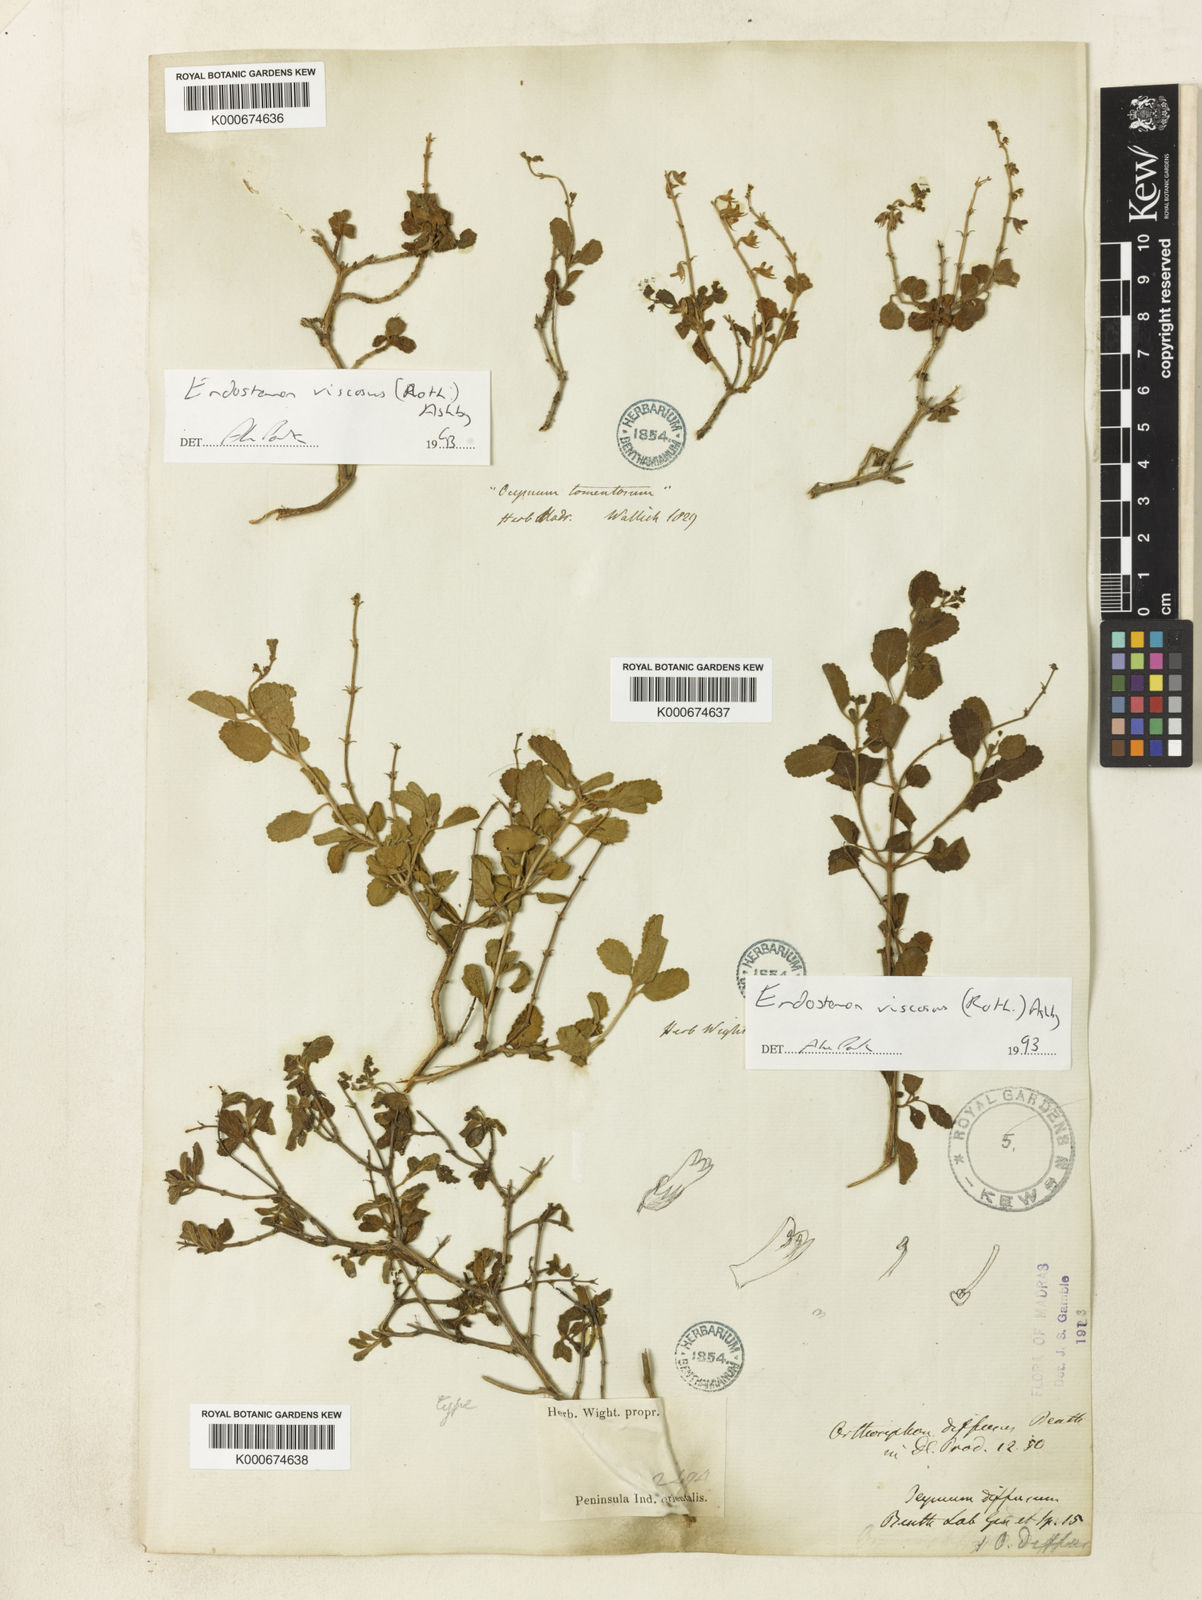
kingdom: Plantae
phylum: Tracheophyta
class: Magnoliopsida
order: Lamiales
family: Lamiaceae
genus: Endostemon
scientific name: Endostemon viscosus
